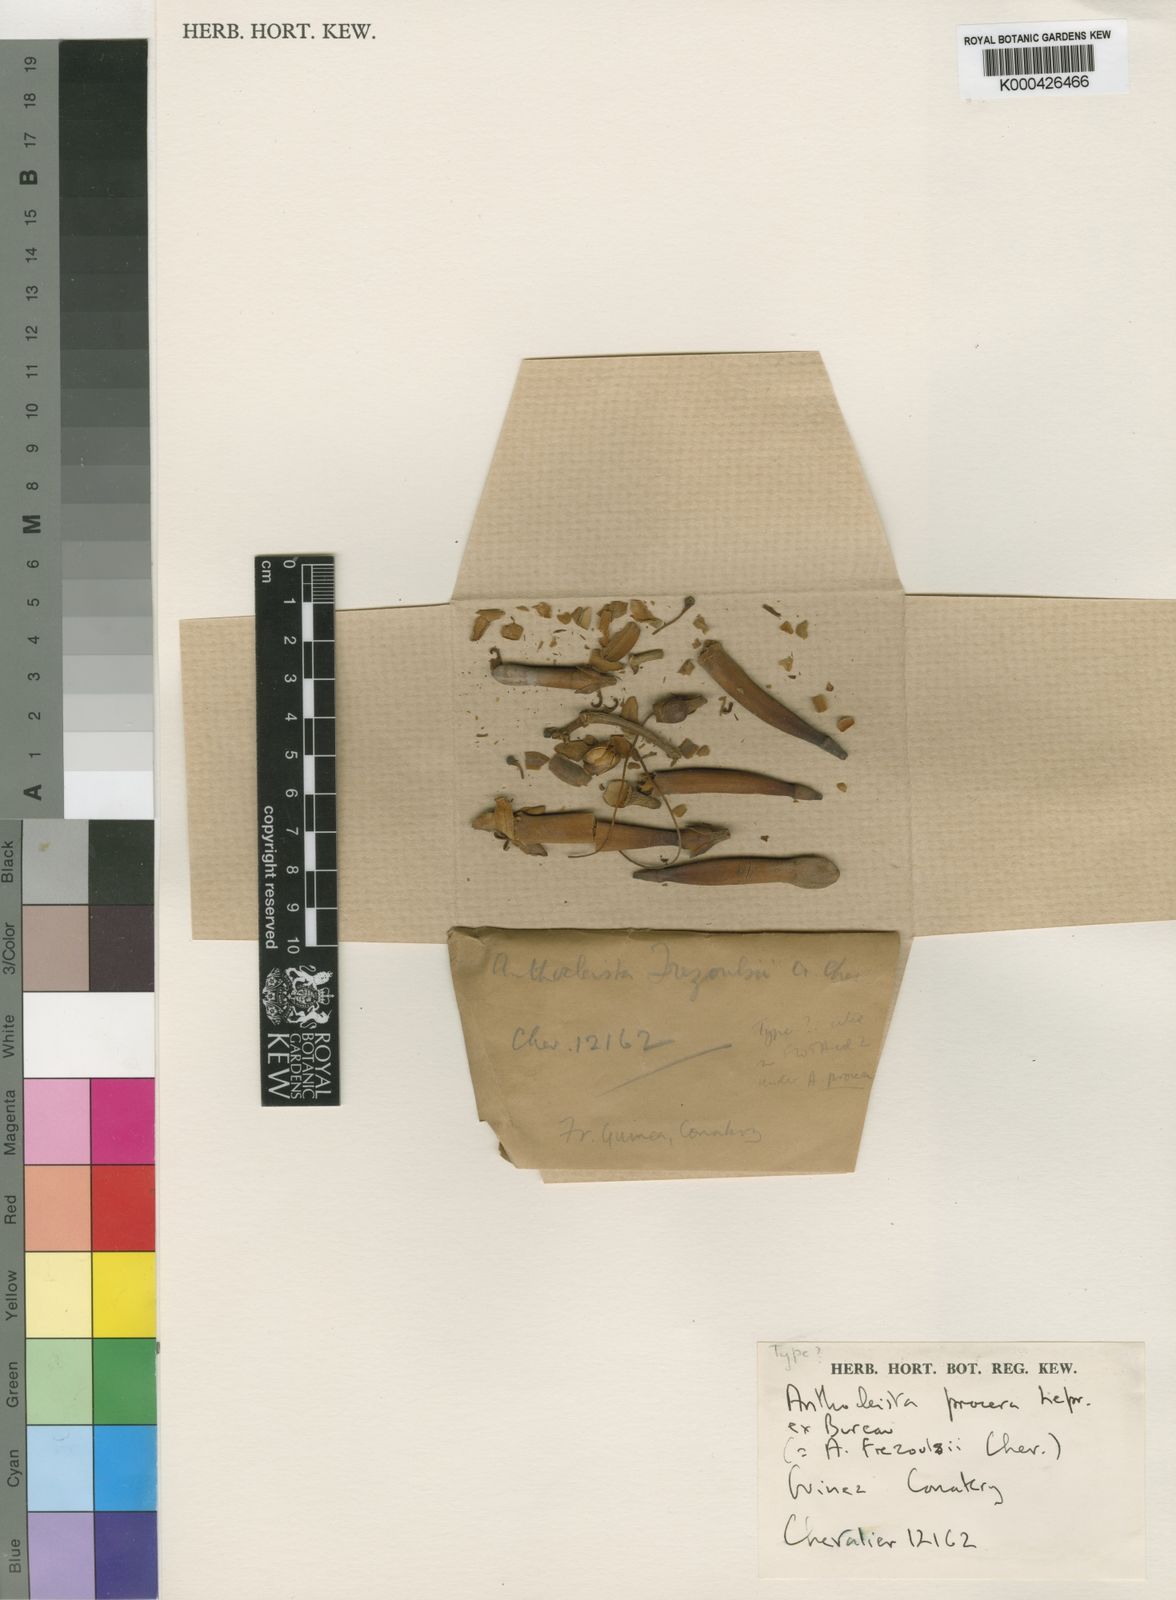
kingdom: Plantae
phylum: Tracheophyta
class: Magnoliopsida
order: Gentianales
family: Gentianaceae
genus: Anthocleista
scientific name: Anthocleista procera
